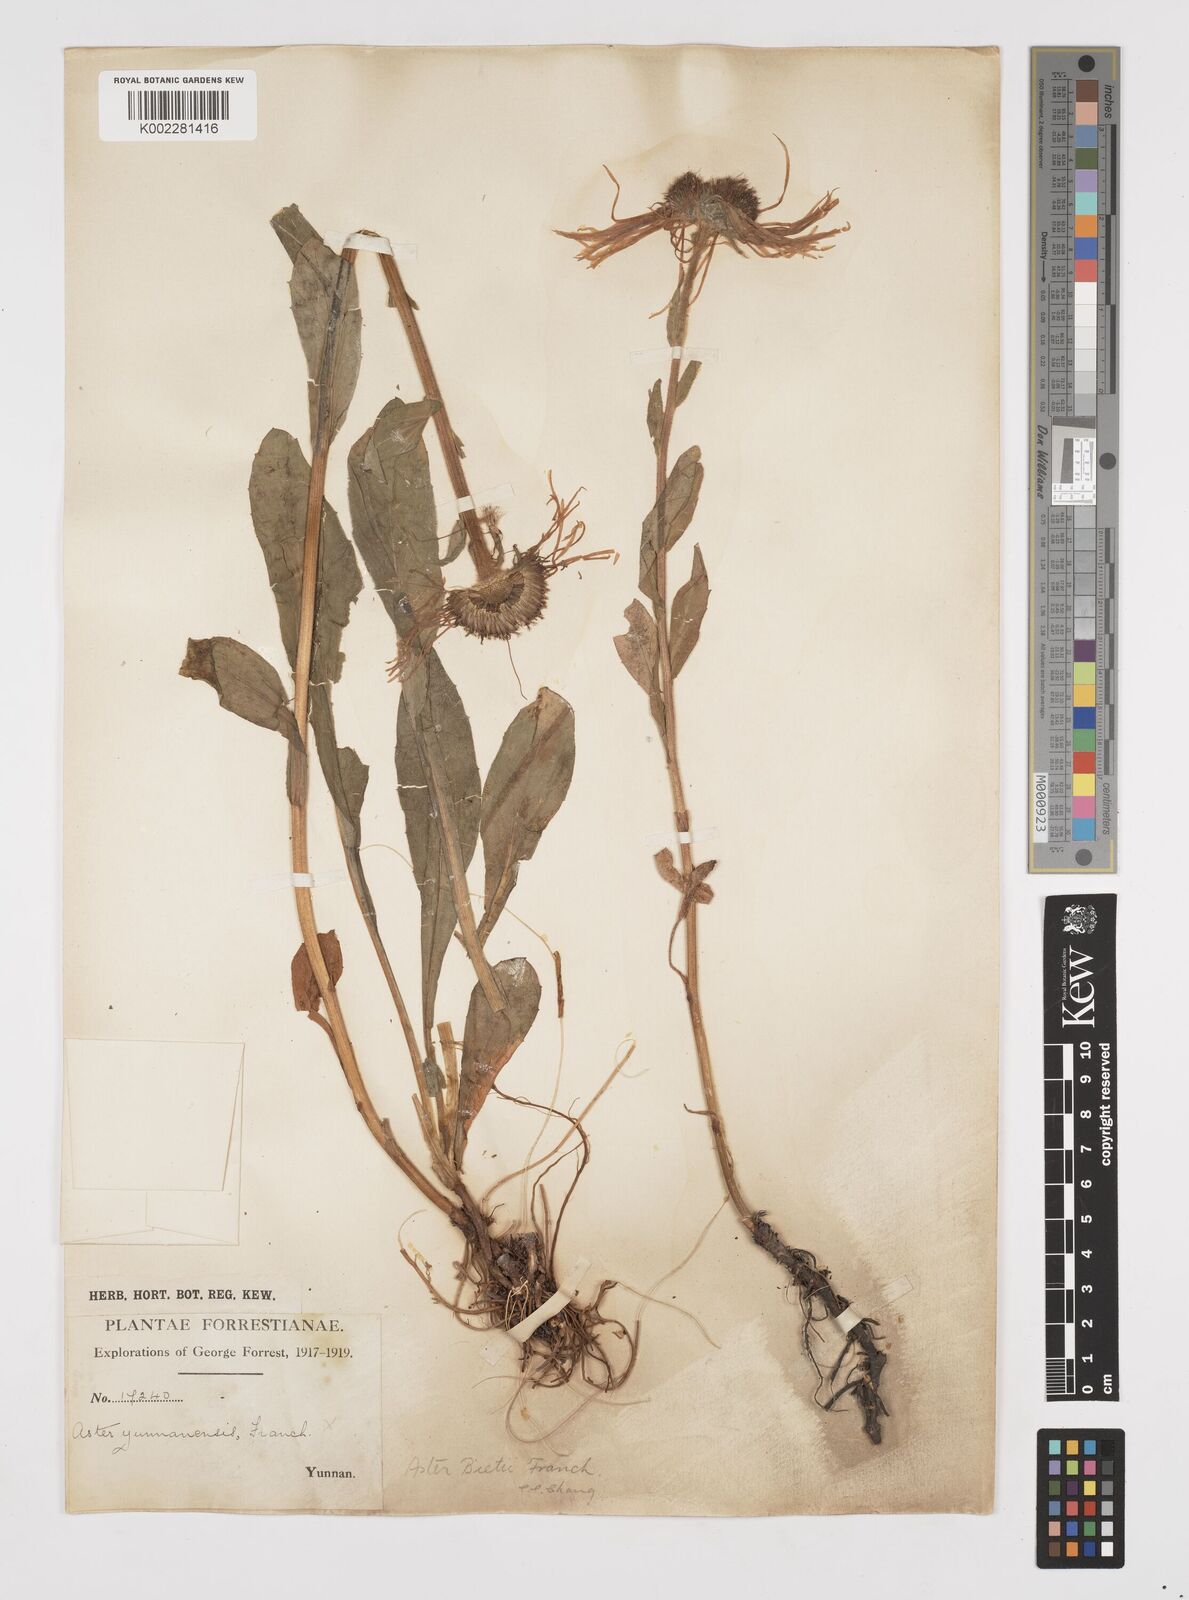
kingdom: Plantae
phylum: Tracheophyta
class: Magnoliopsida
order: Asterales
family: Asteraceae
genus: Tibetiodes
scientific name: Tibetiodes bietii
